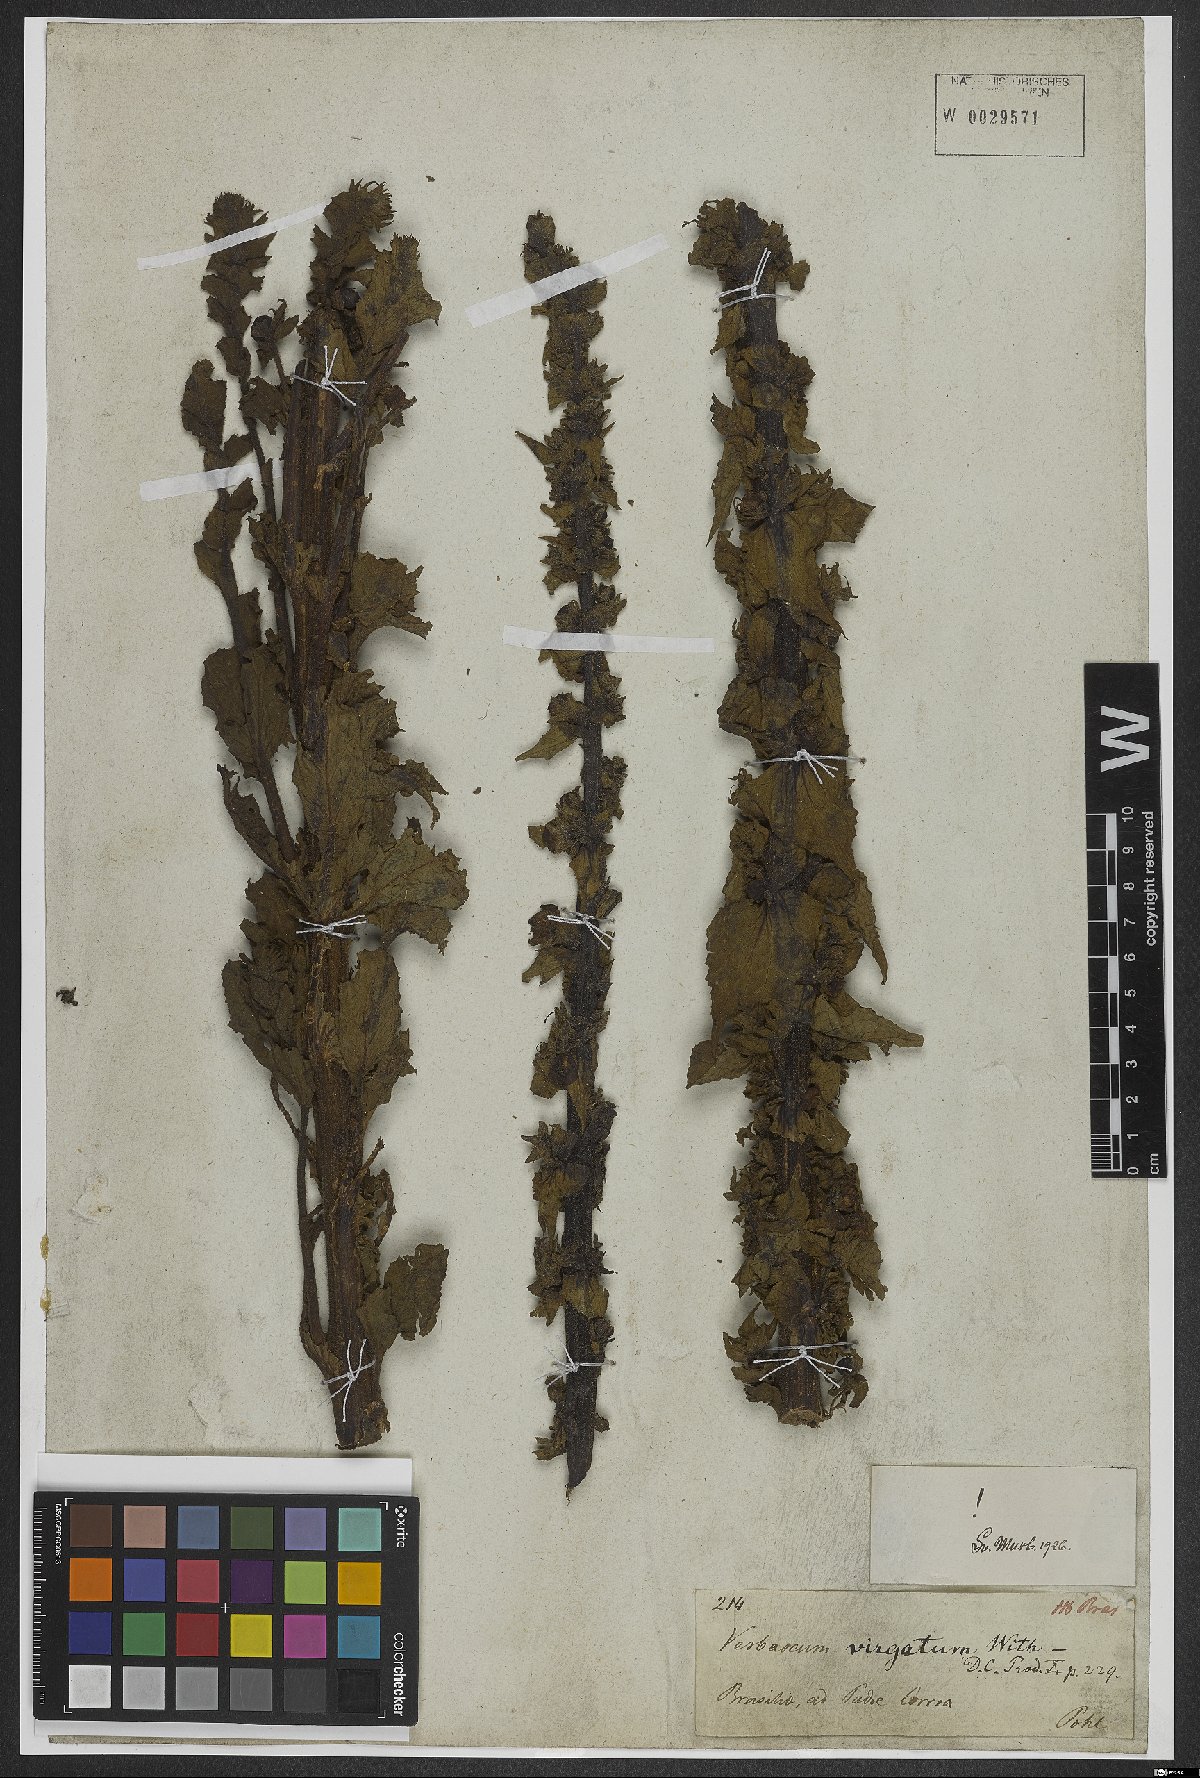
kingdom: Plantae
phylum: Tracheophyta
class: Magnoliopsida
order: Lamiales
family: Scrophulariaceae
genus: Verbascum
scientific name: Verbascum virgatum
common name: Twiggy mullein
